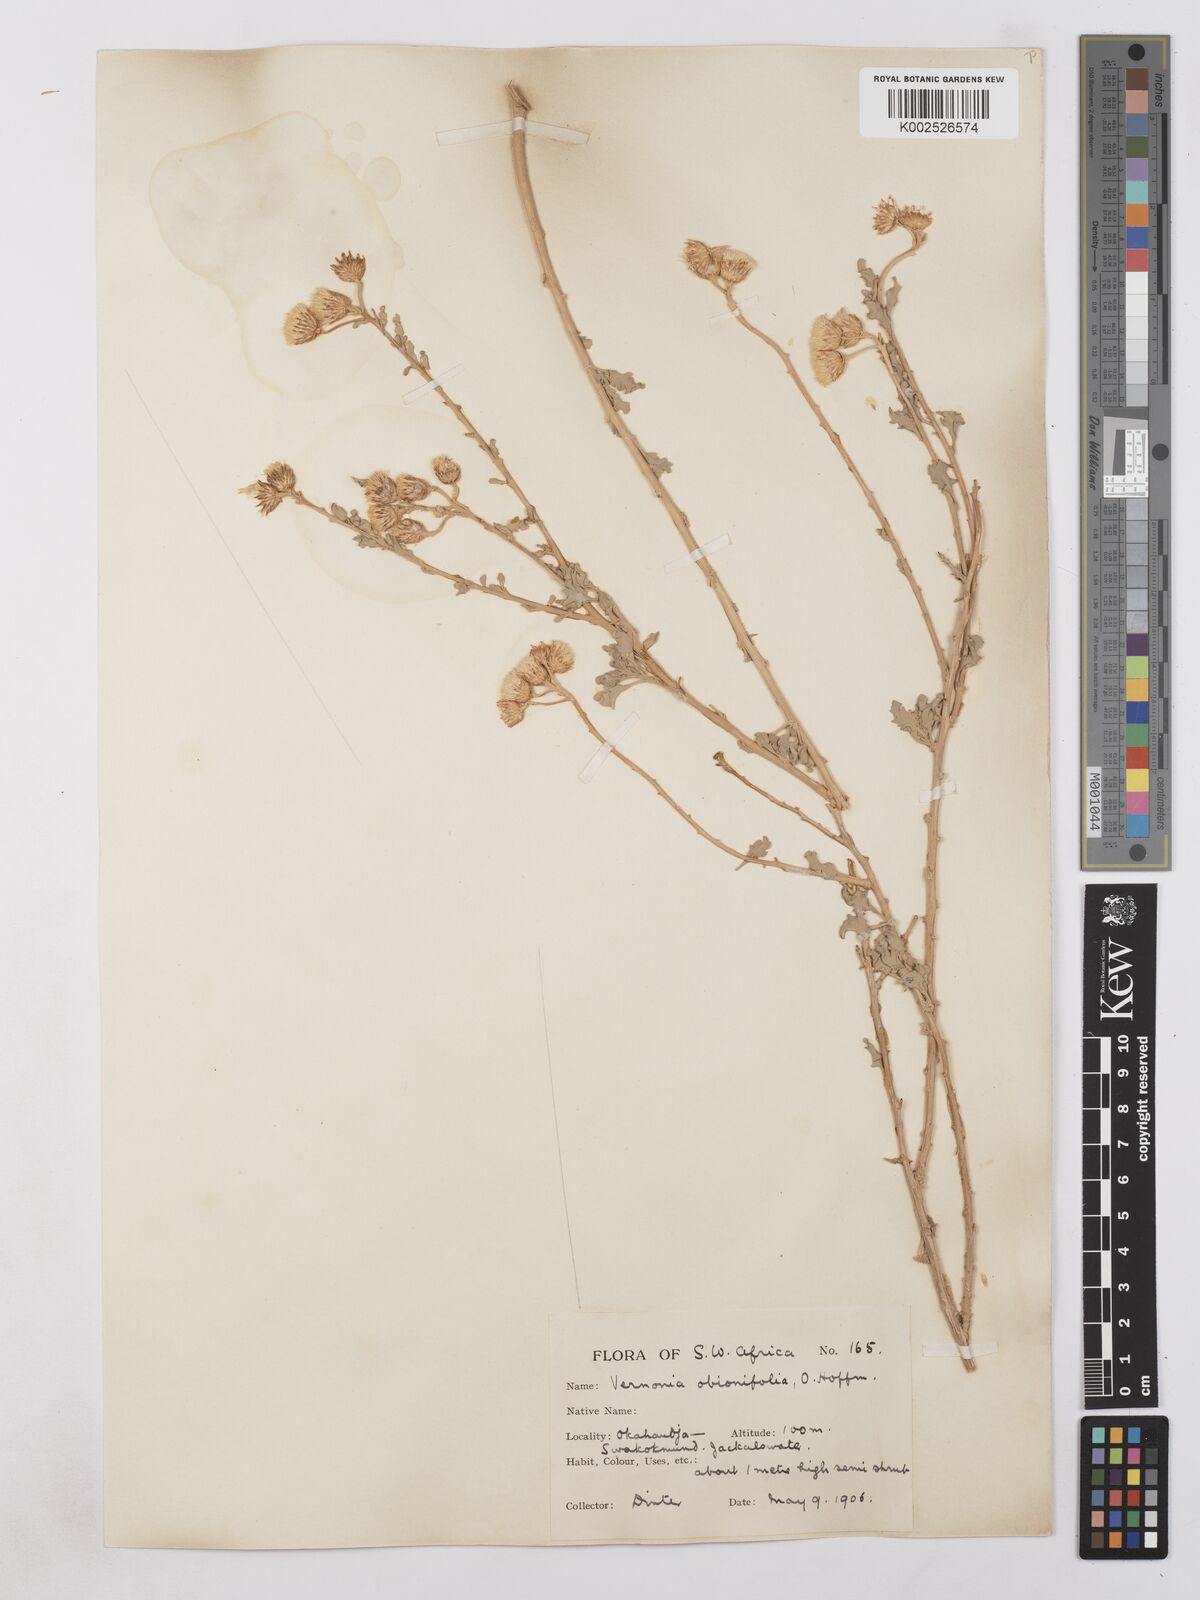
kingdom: Plantae
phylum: Tracheophyta
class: Magnoliopsida
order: Asterales
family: Asteraceae
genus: Namibithamnus
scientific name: Namibithamnus obionifolius
